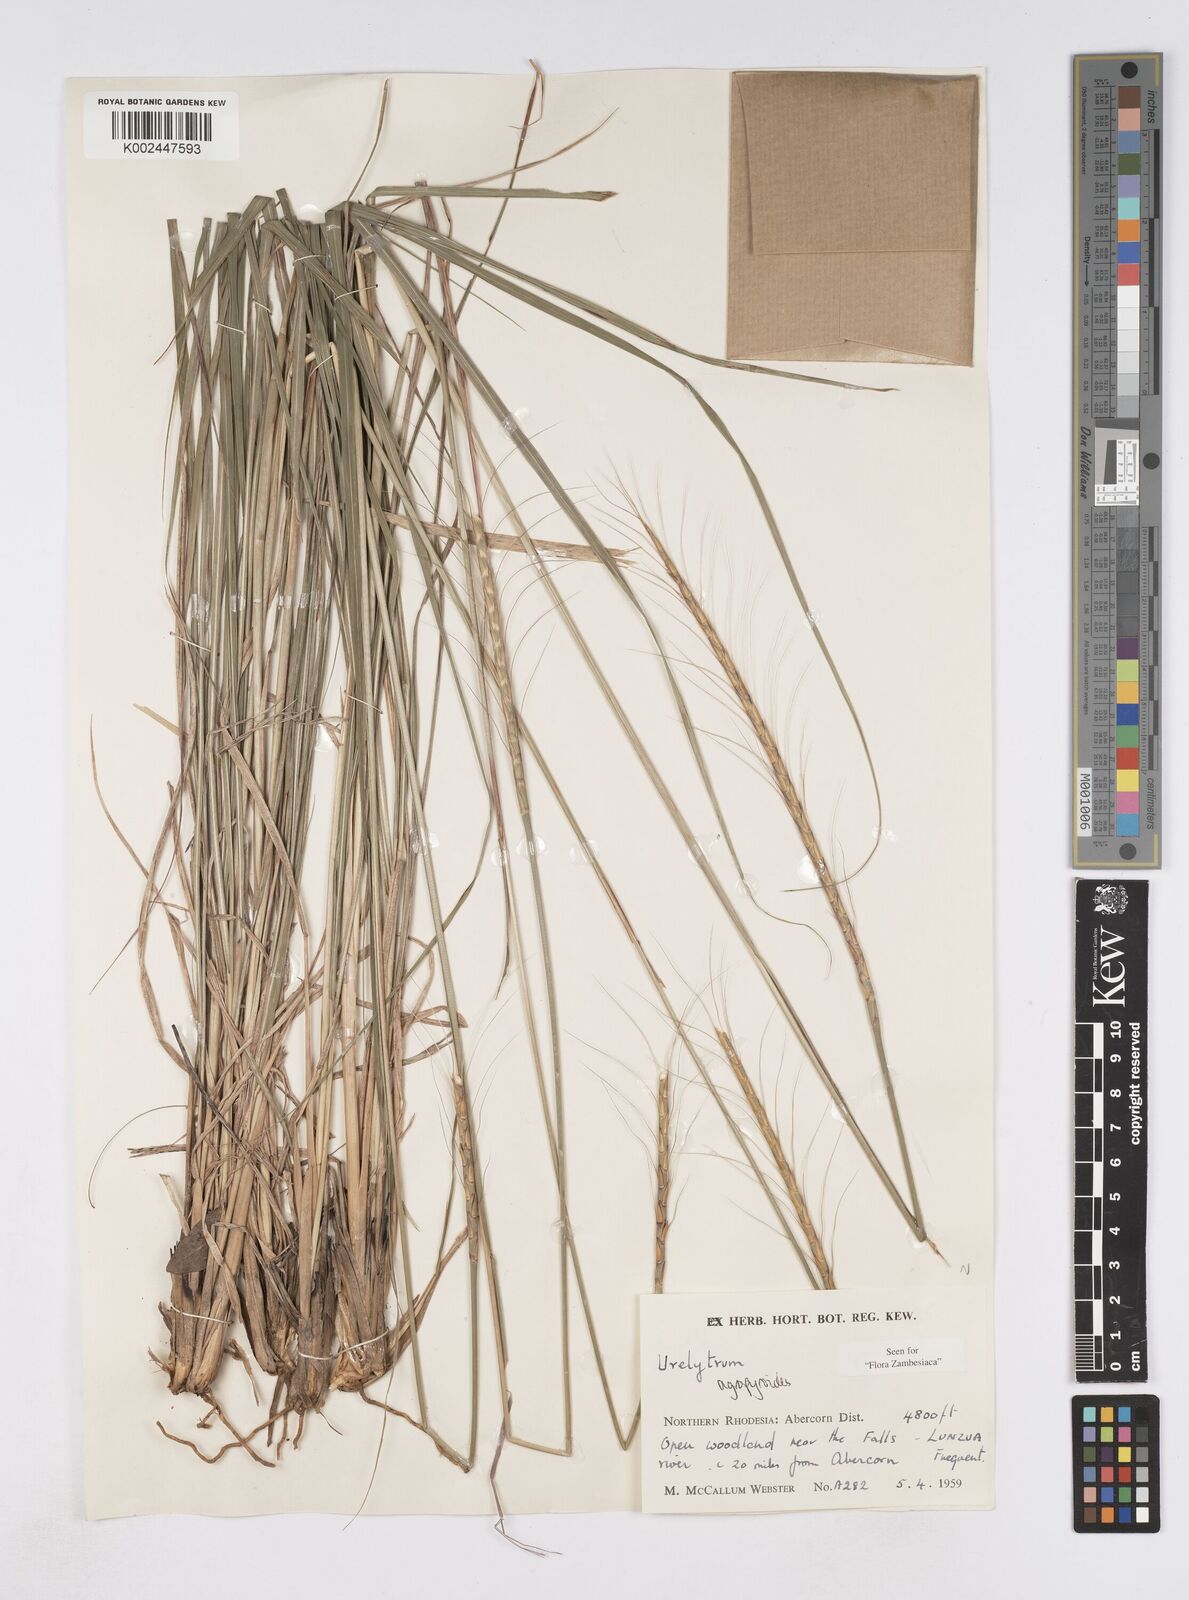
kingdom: Plantae
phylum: Tracheophyta
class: Liliopsida
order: Poales
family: Poaceae
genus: Urelytrum
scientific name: Urelytrum agropyroides
